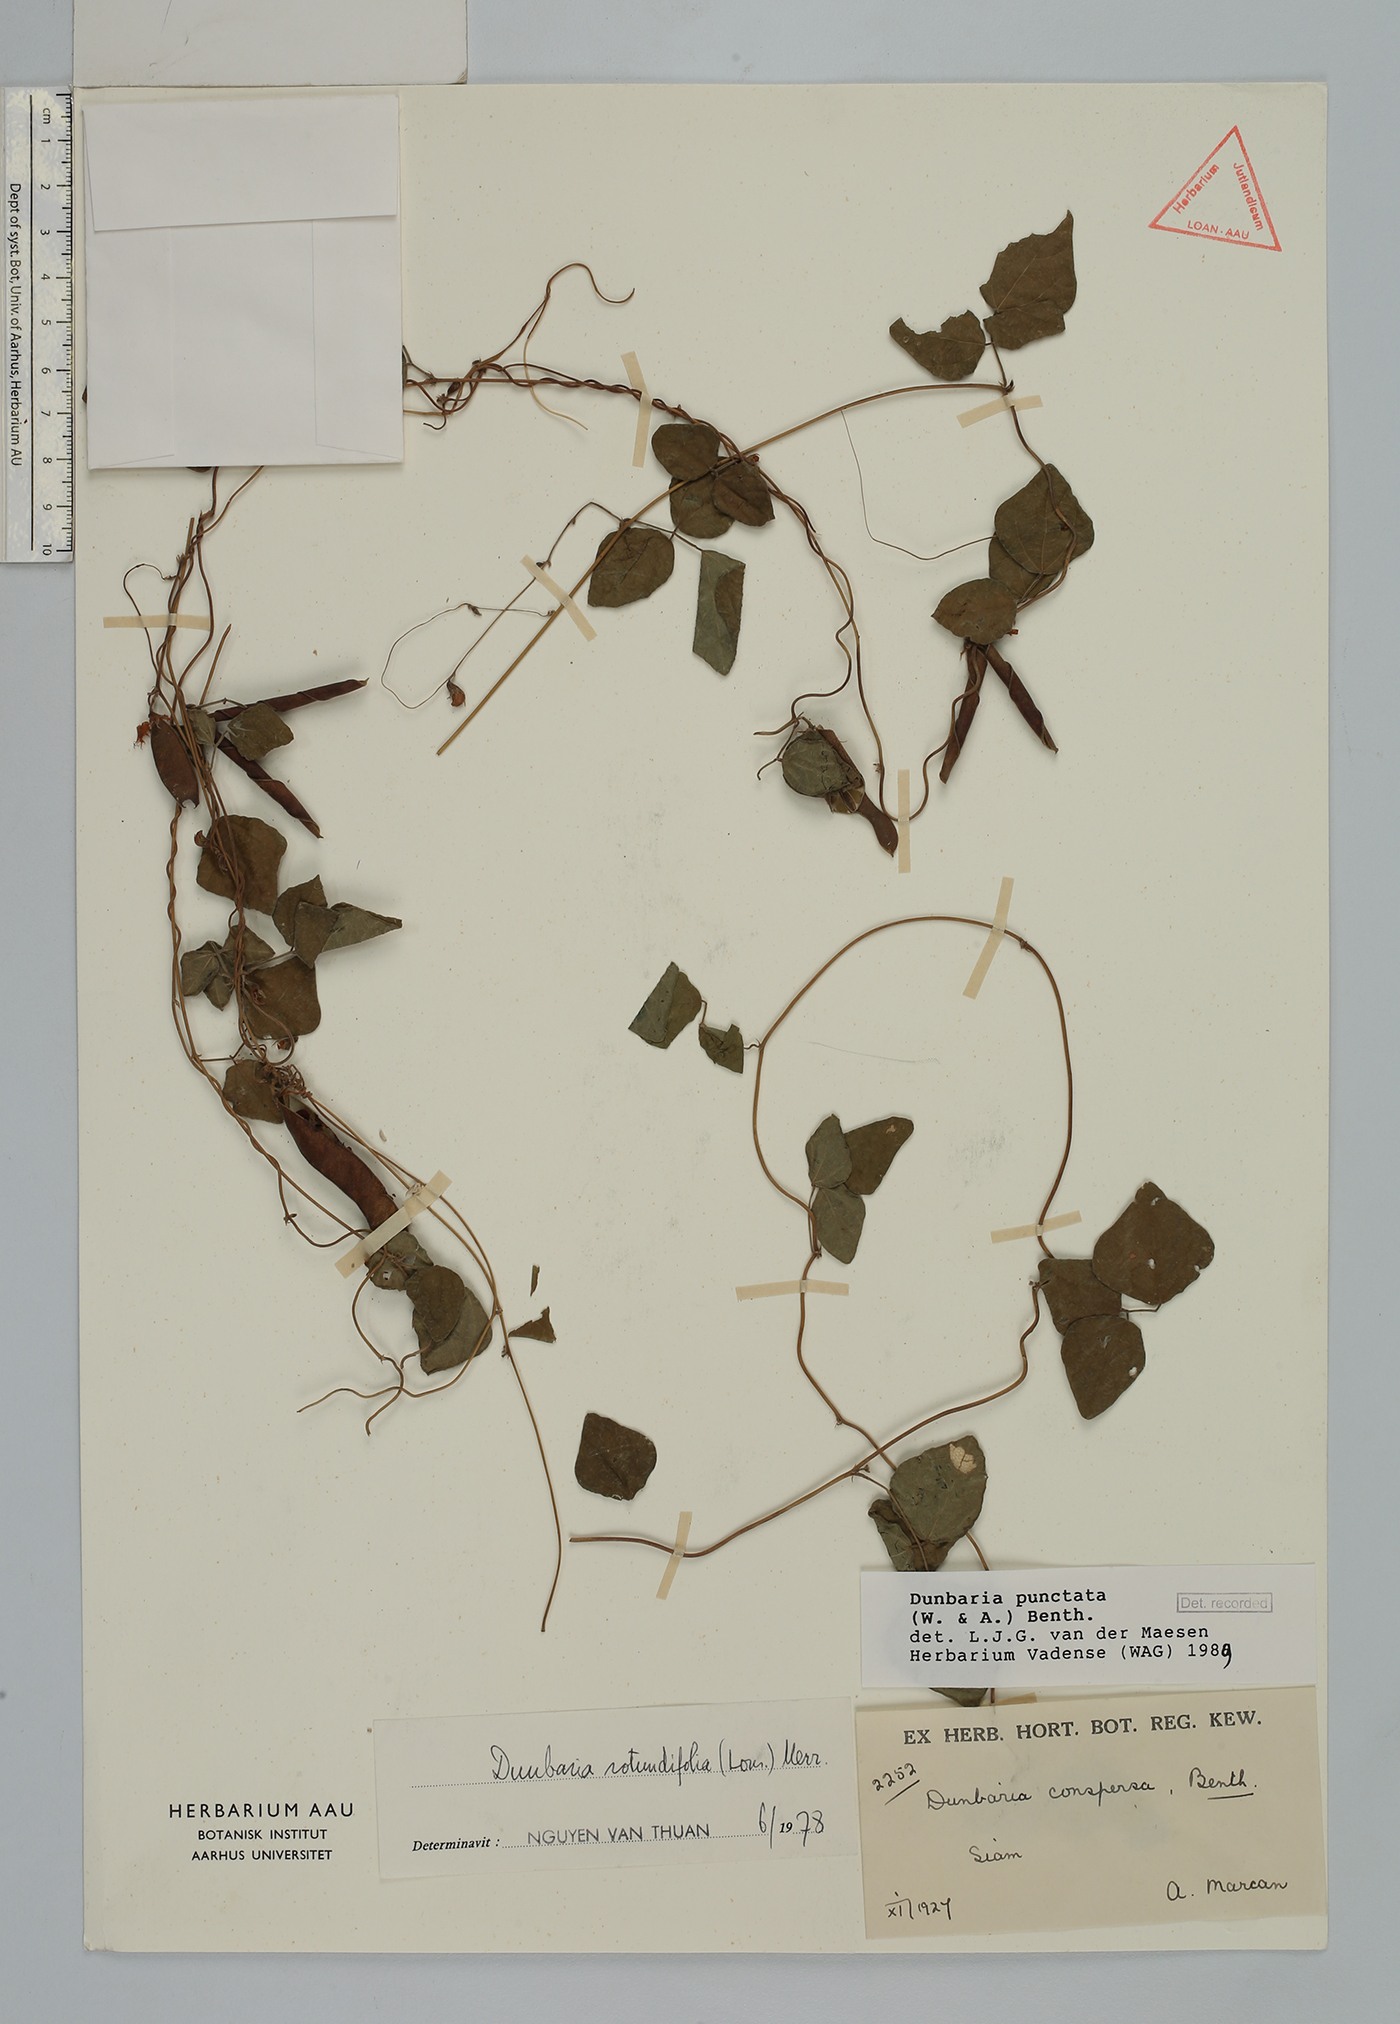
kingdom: Plantae
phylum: Tracheophyta
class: Magnoliopsida
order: Fabales
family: Fabaceae
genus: Dunbaria
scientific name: Dunbaria punctata
